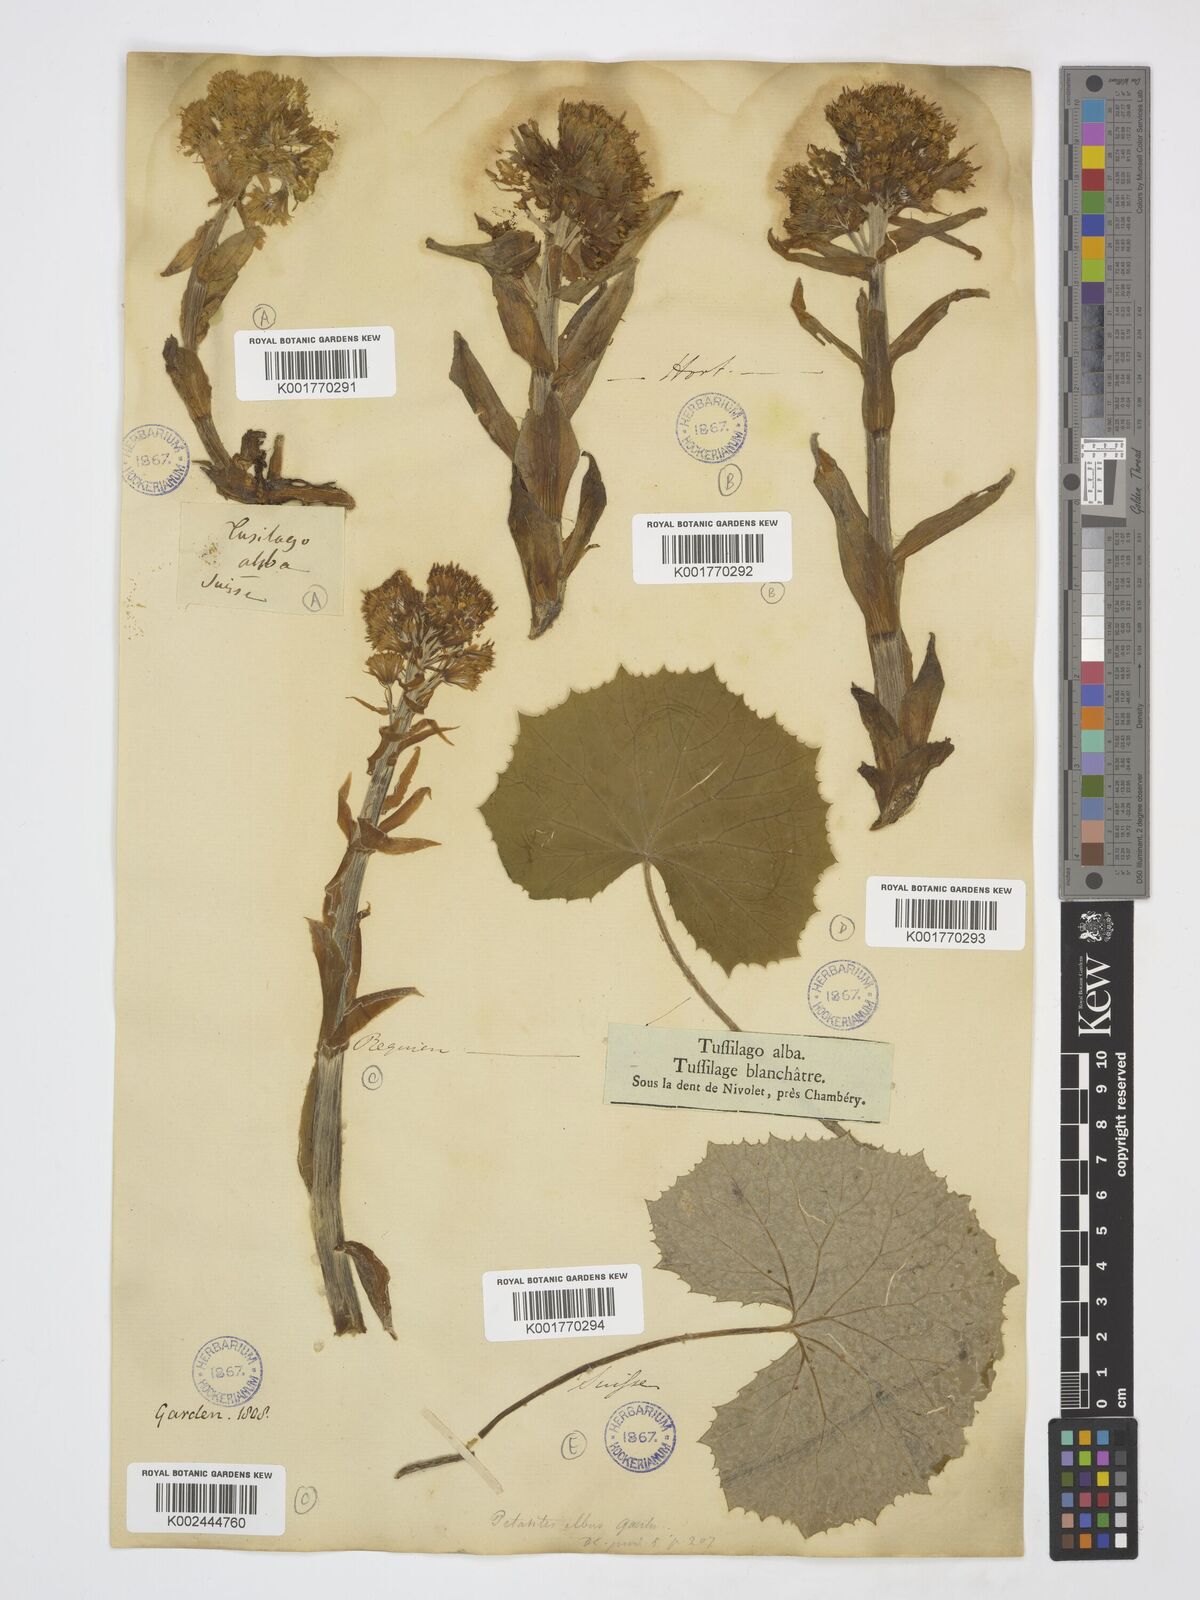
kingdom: Plantae
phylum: Tracheophyta
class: Magnoliopsida
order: Asterales
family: Asteraceae
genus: Petasites
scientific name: Petasites albus
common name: White butterbur
